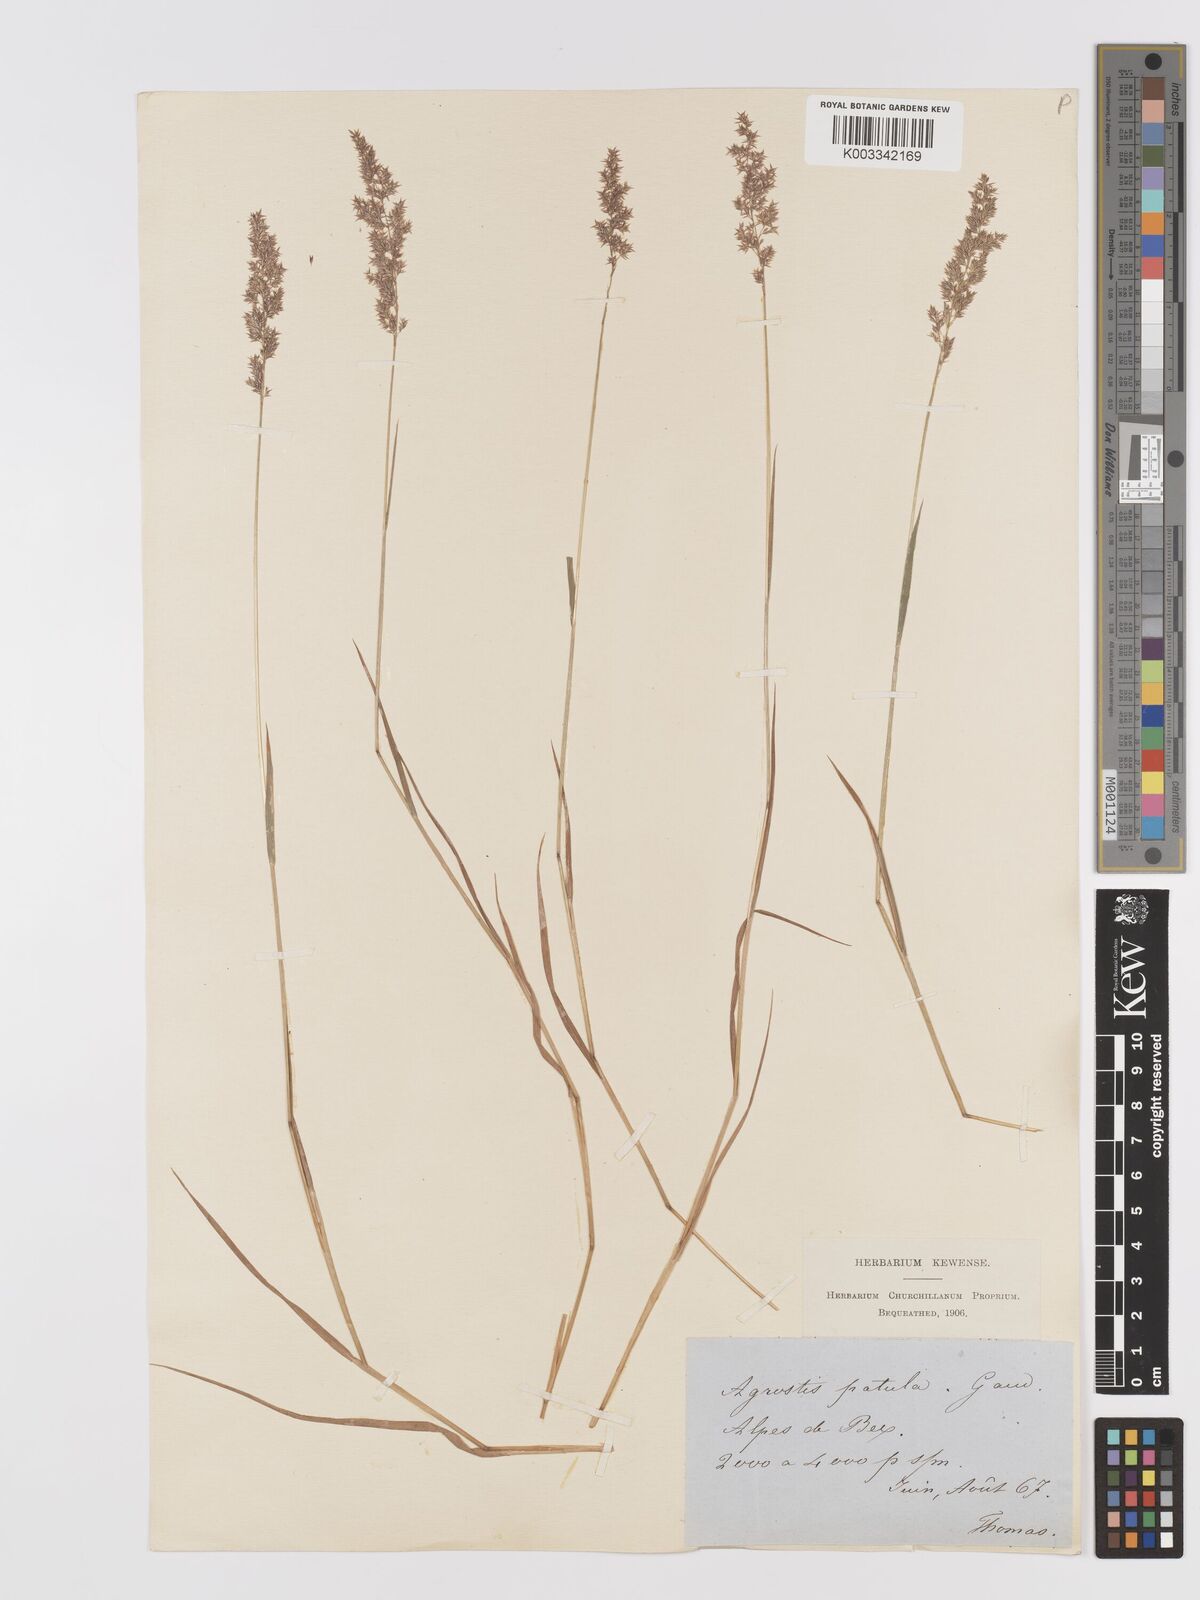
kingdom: Plantae
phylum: Tracheophyta
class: Liliopsida
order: Poales
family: Poaceae
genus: Agrostis
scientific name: Agrostis stolonifera
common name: Creeping bentgrass
